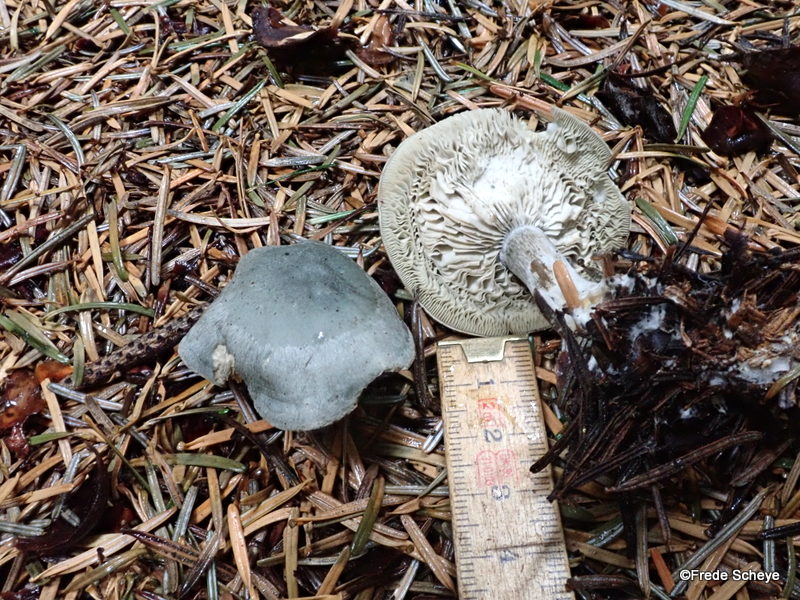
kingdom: Fungi
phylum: Basidiomycota
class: Agaricomycetes
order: Agaricales
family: Tricholomataceae
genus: Clitocybe
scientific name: Clitocybe odora
